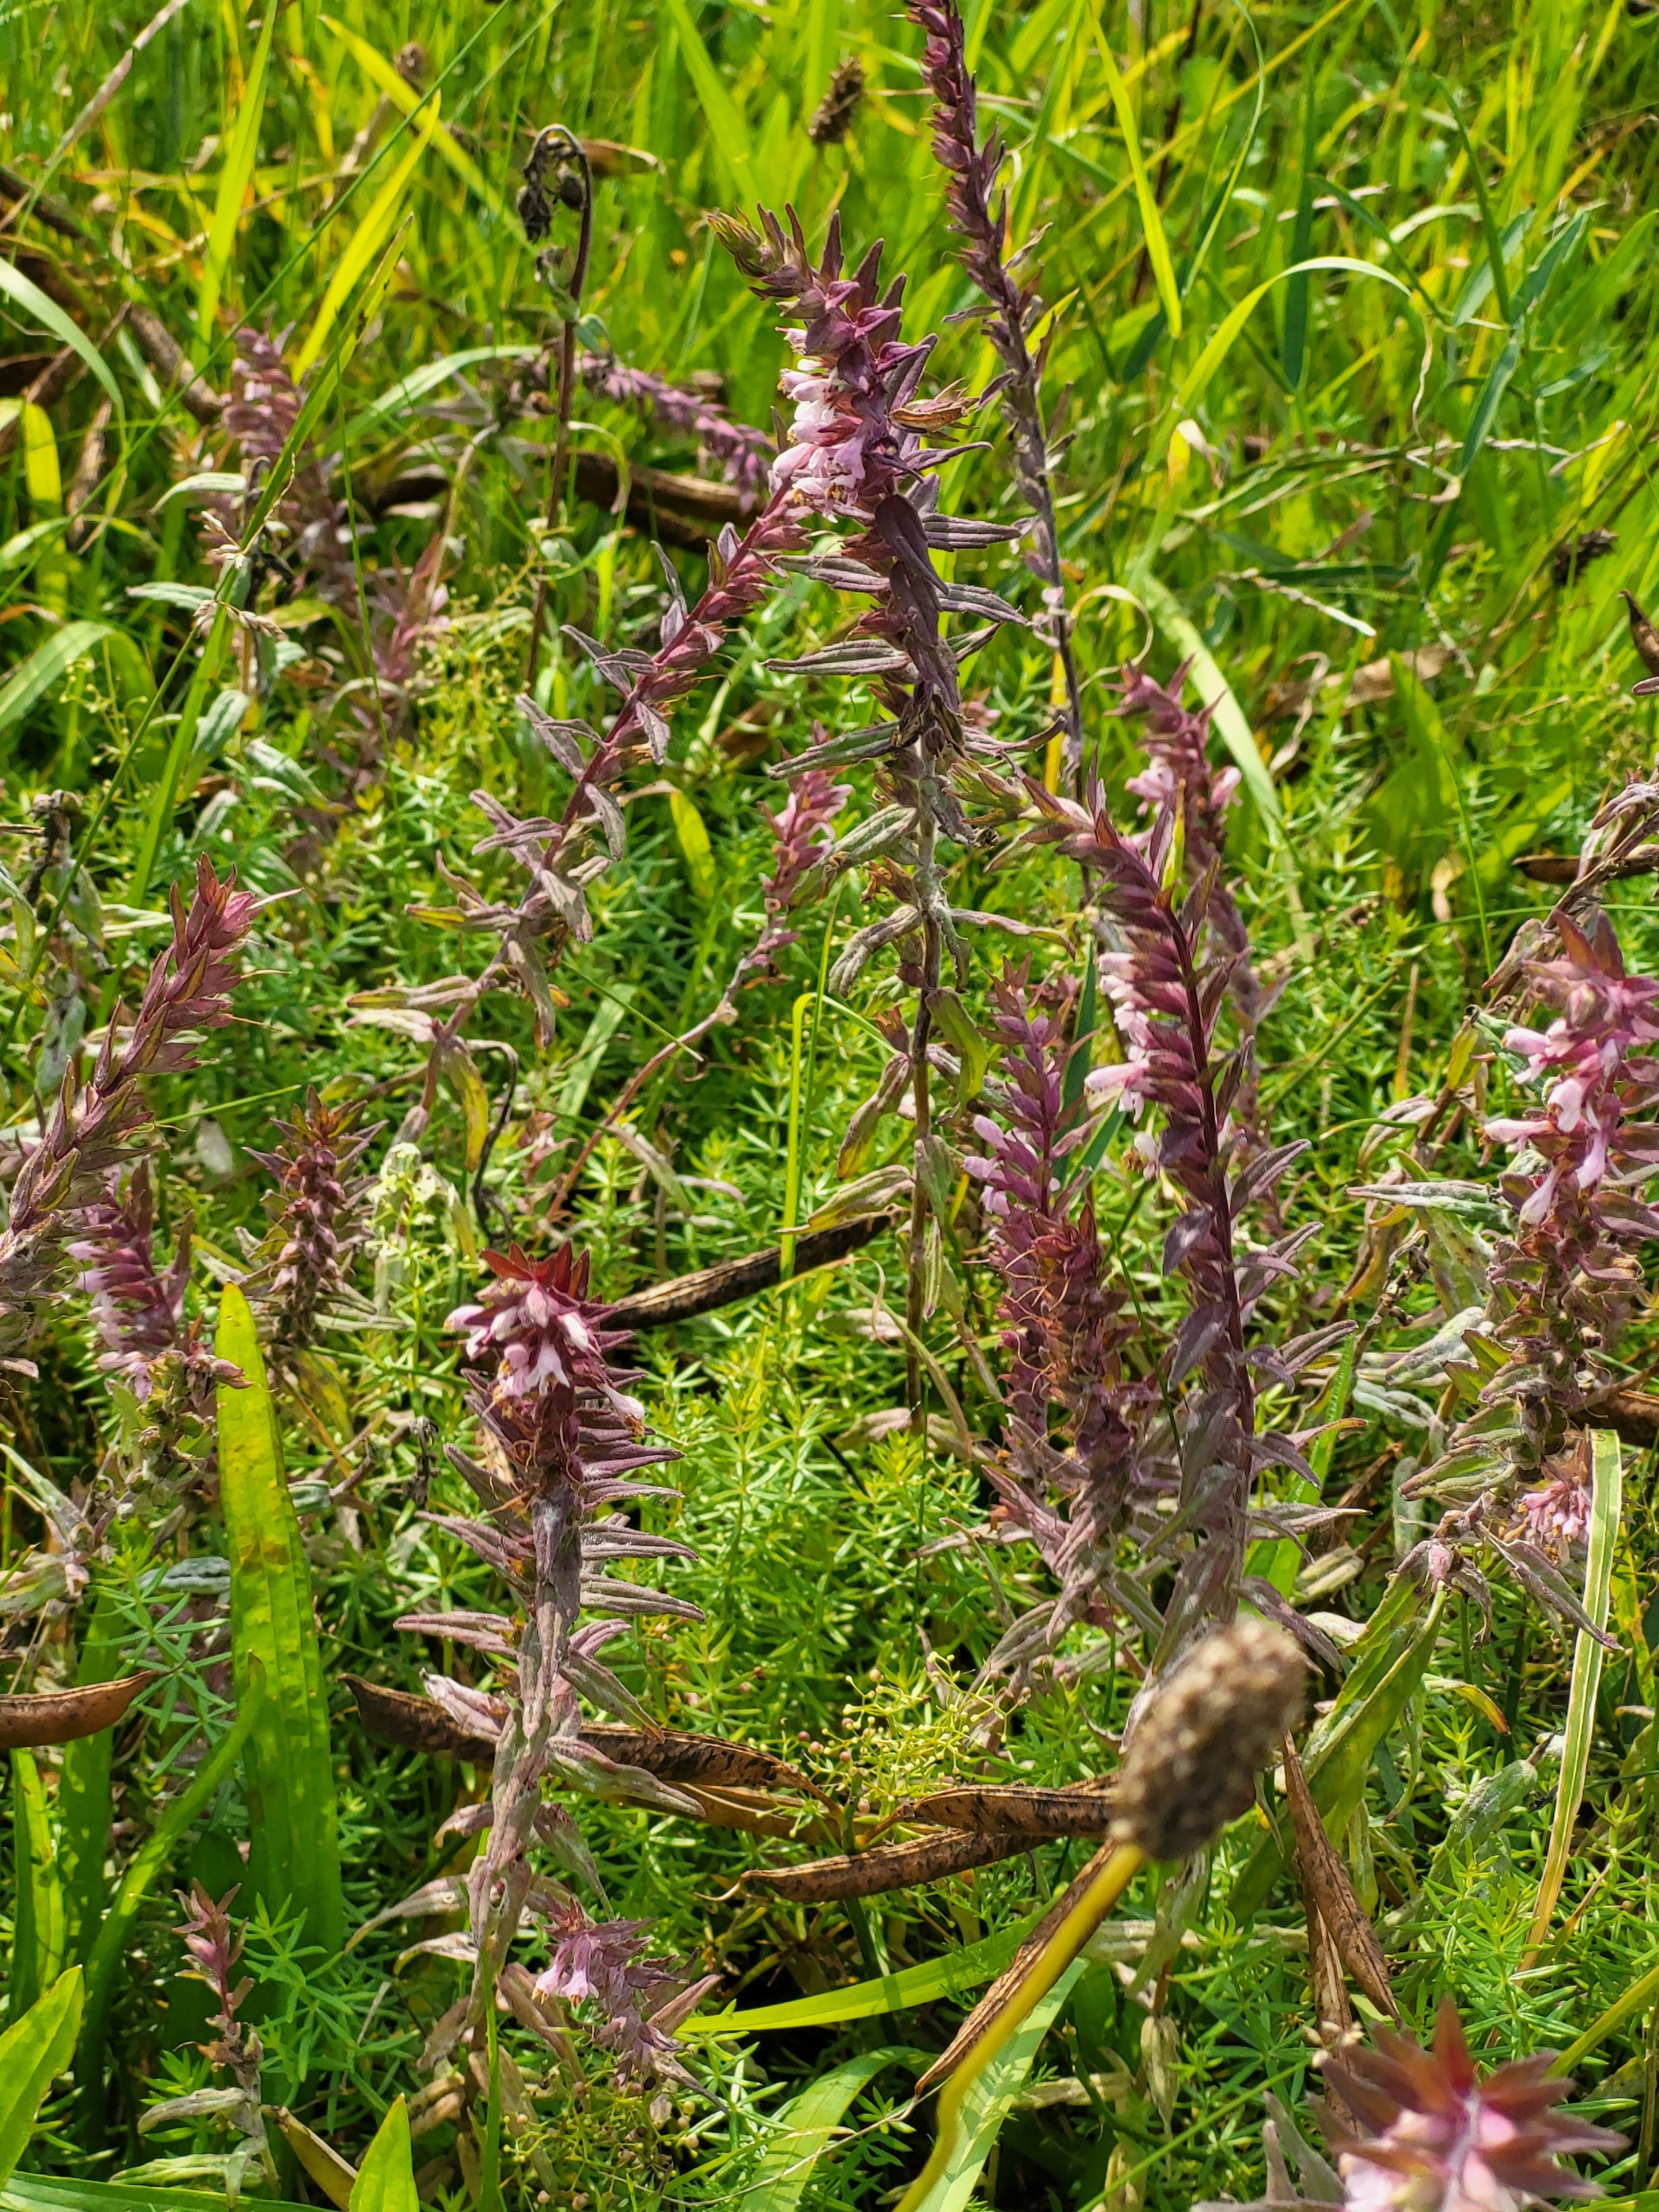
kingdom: Plantae
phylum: Tracheophyta
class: Magnoliopsida
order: Lamiales
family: Orobanchaceae
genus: Odontites
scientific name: Odontites vernus
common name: Mark-rødtop
